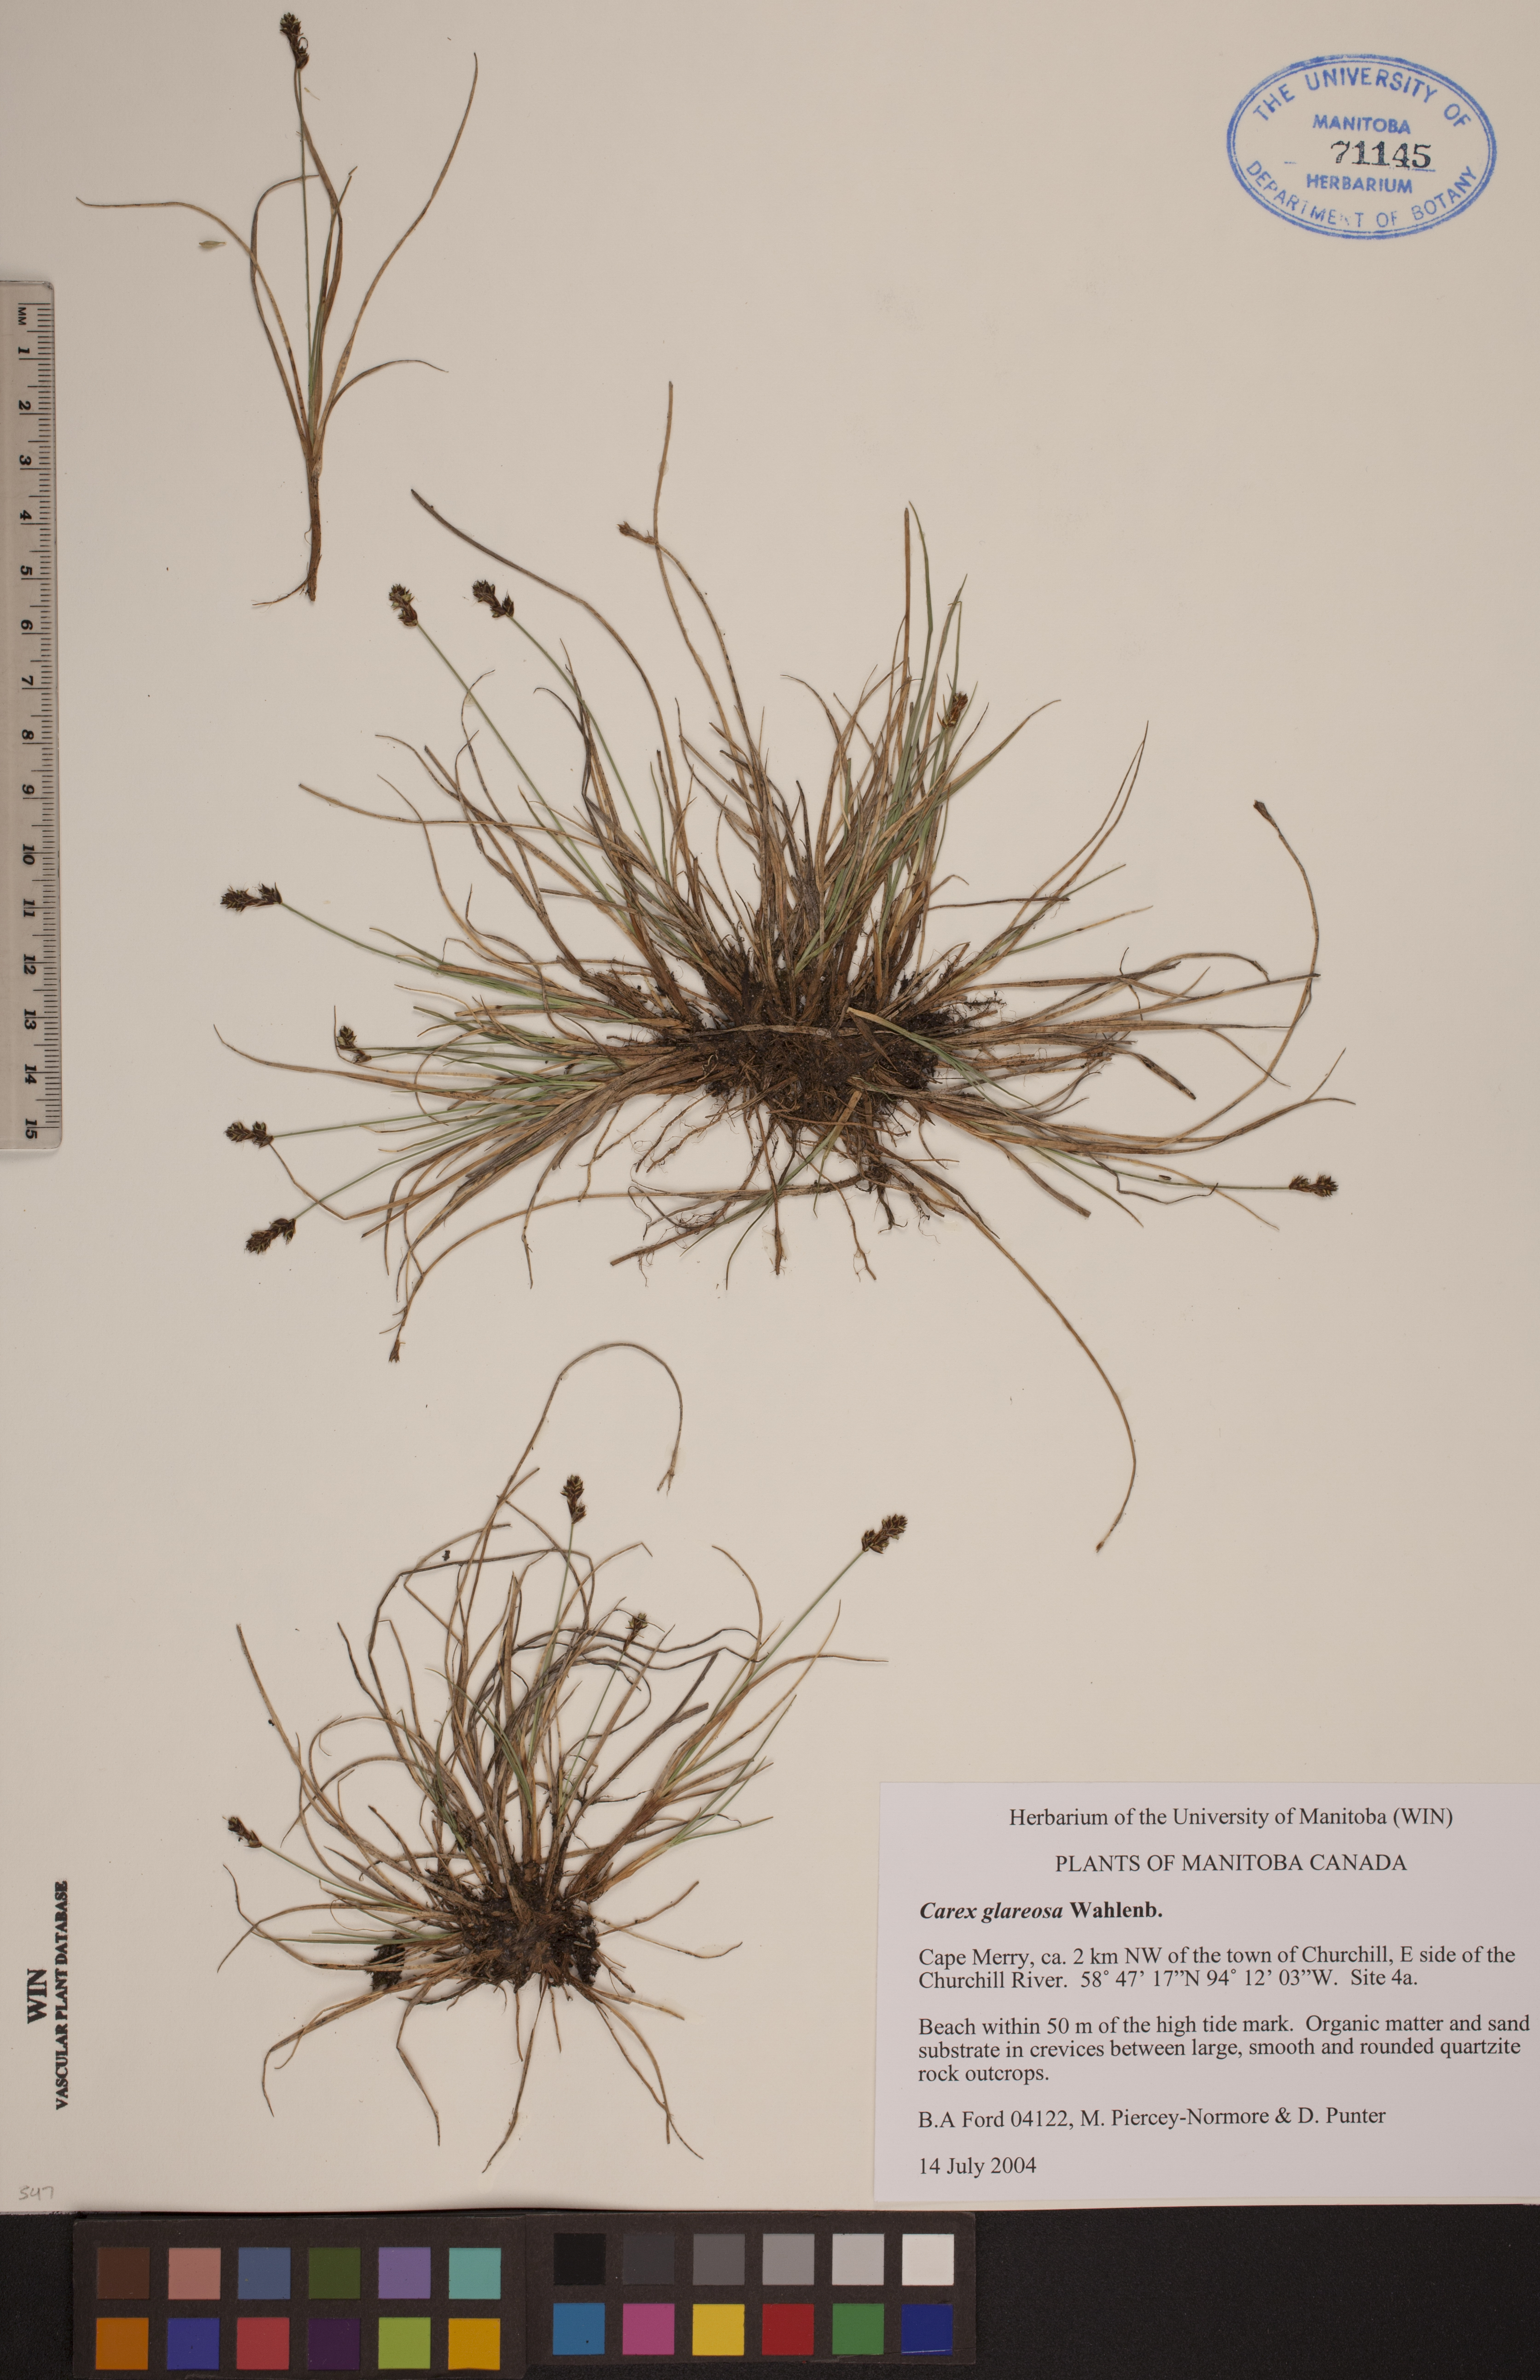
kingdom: Plantae
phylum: Tracheophyta
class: Liliopsida
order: Poales
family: Cyperaceae
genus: Carex
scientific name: Carex glareosa
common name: Clustered sedge
